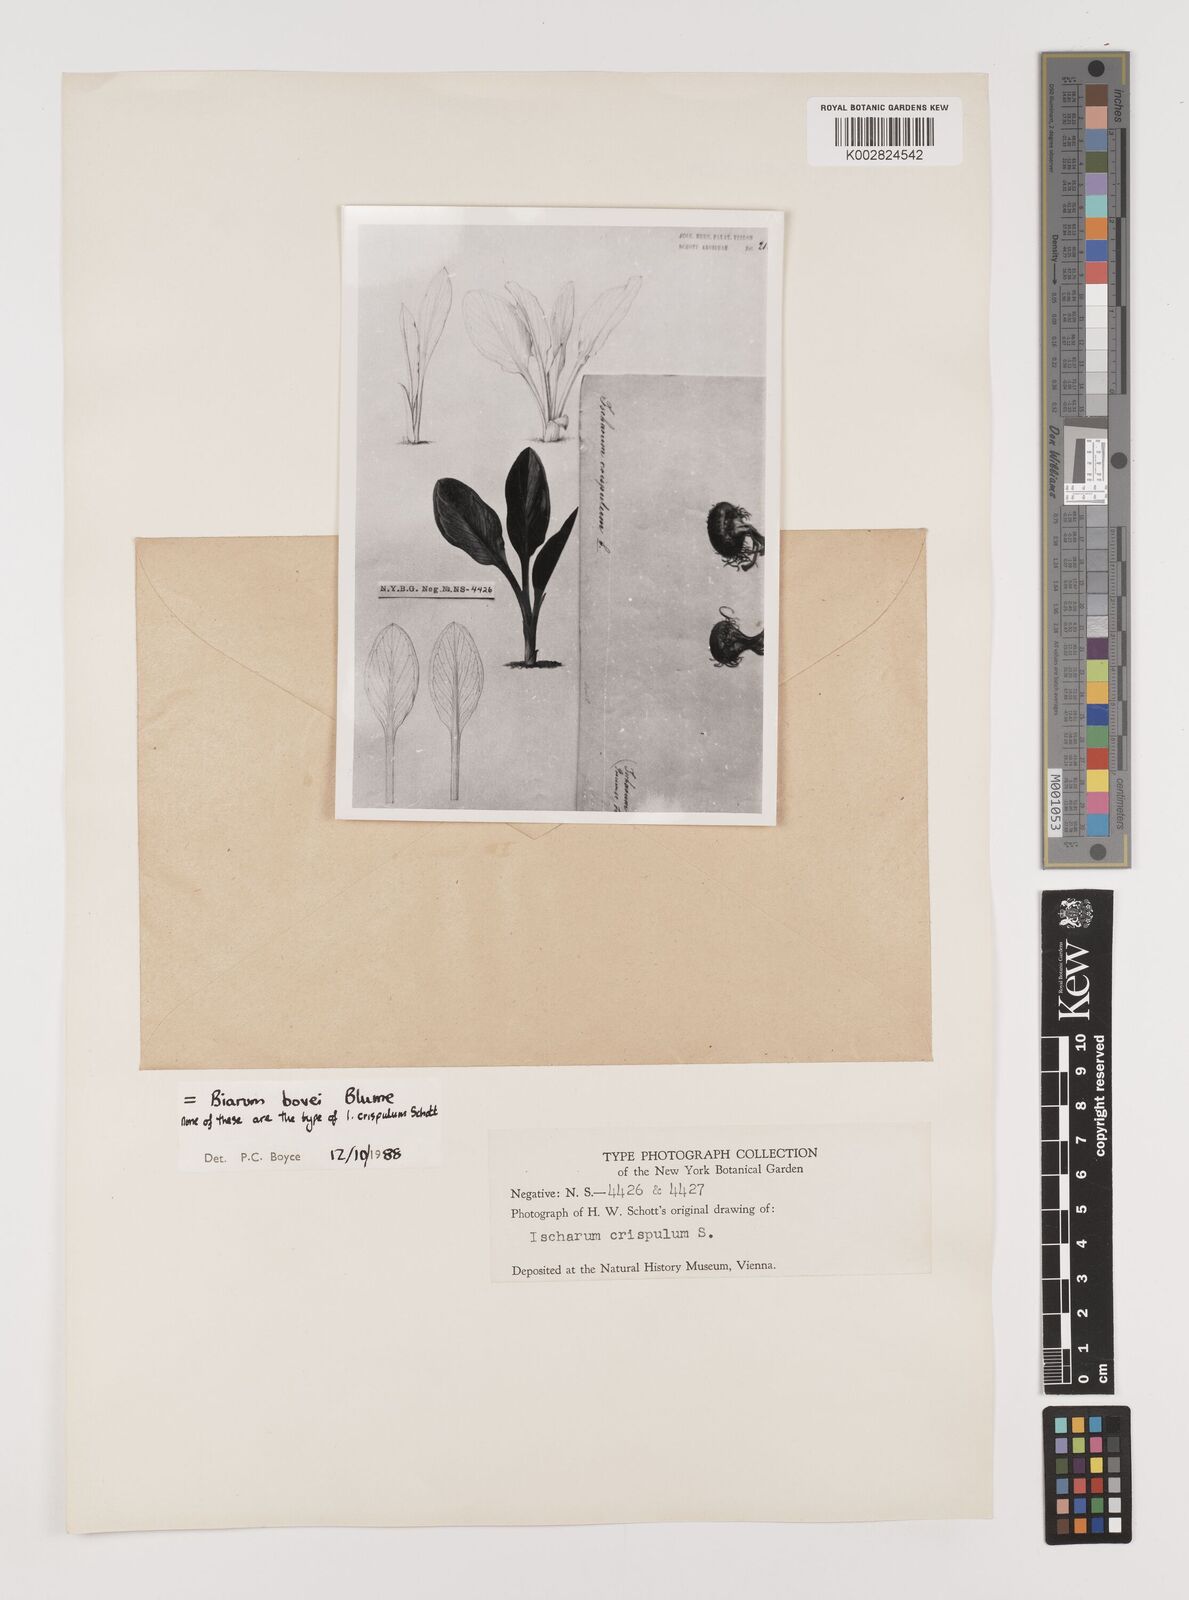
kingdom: Plantae
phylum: Tracheophyta
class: Liliopsida
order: Alismatales
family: Araceae
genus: Biarum
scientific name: Biarum crispulum
